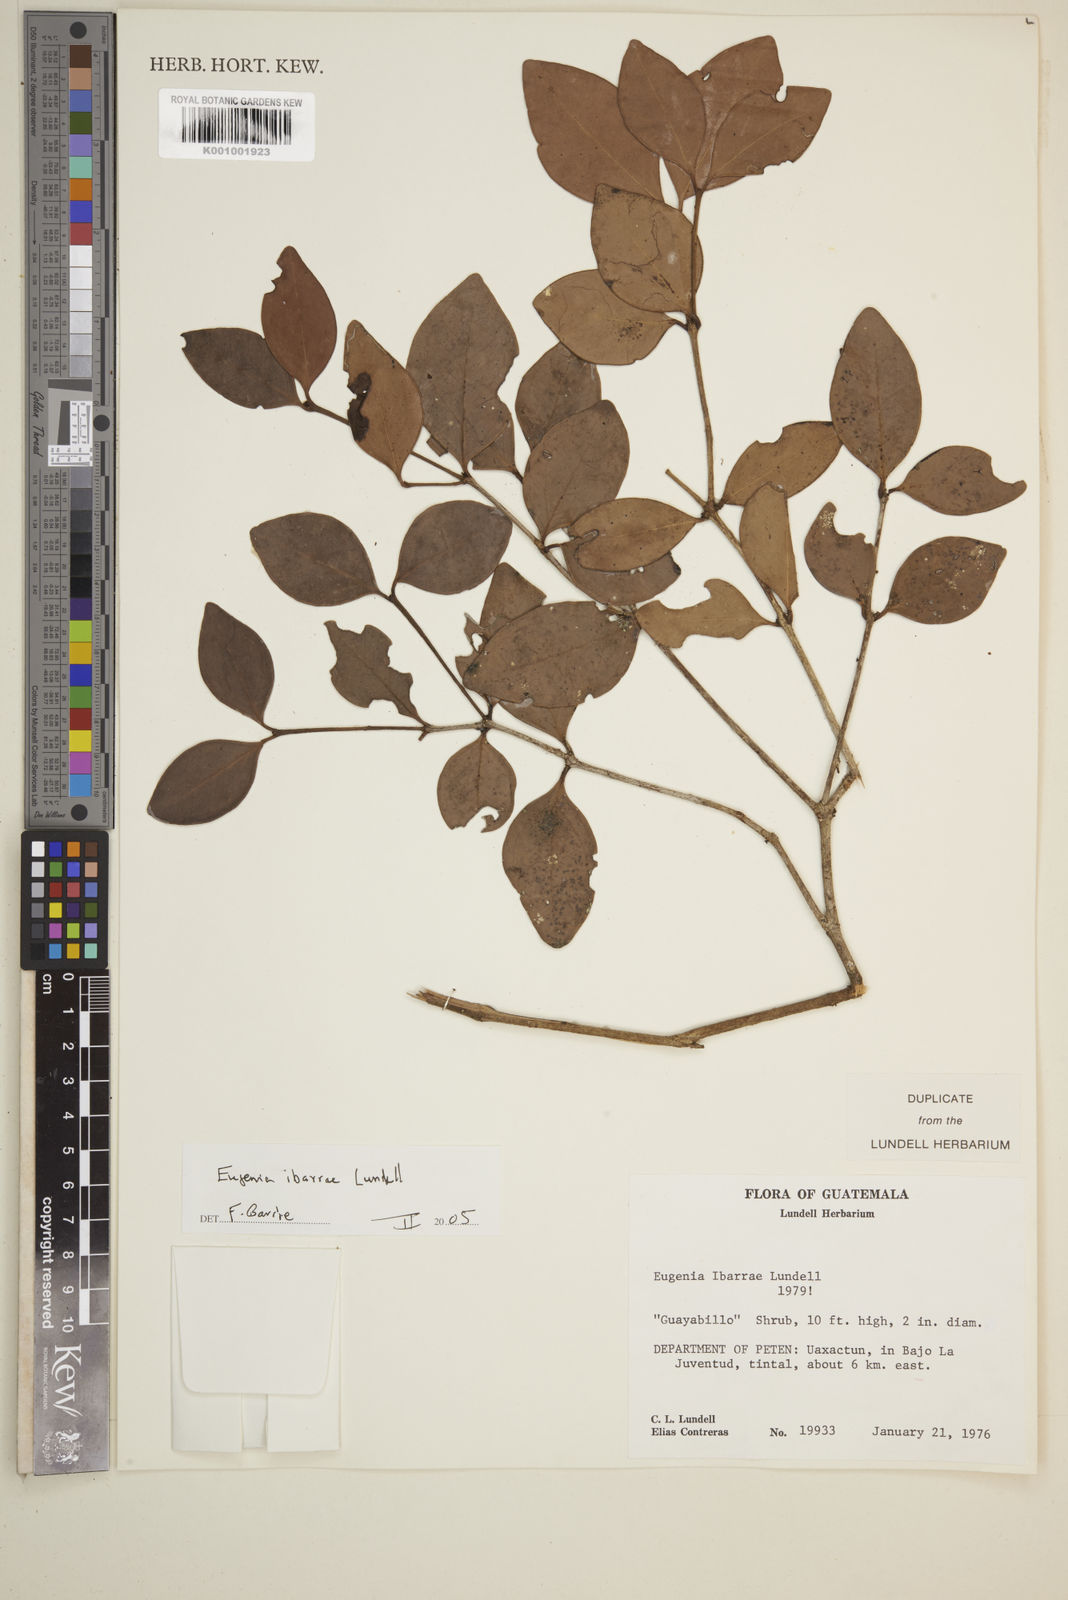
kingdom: Plantae
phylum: Tracheophyta
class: Magnoliopsida
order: Myrtales
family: Myrtaceae
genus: Eugenia
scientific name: Eugenia ibarrae
